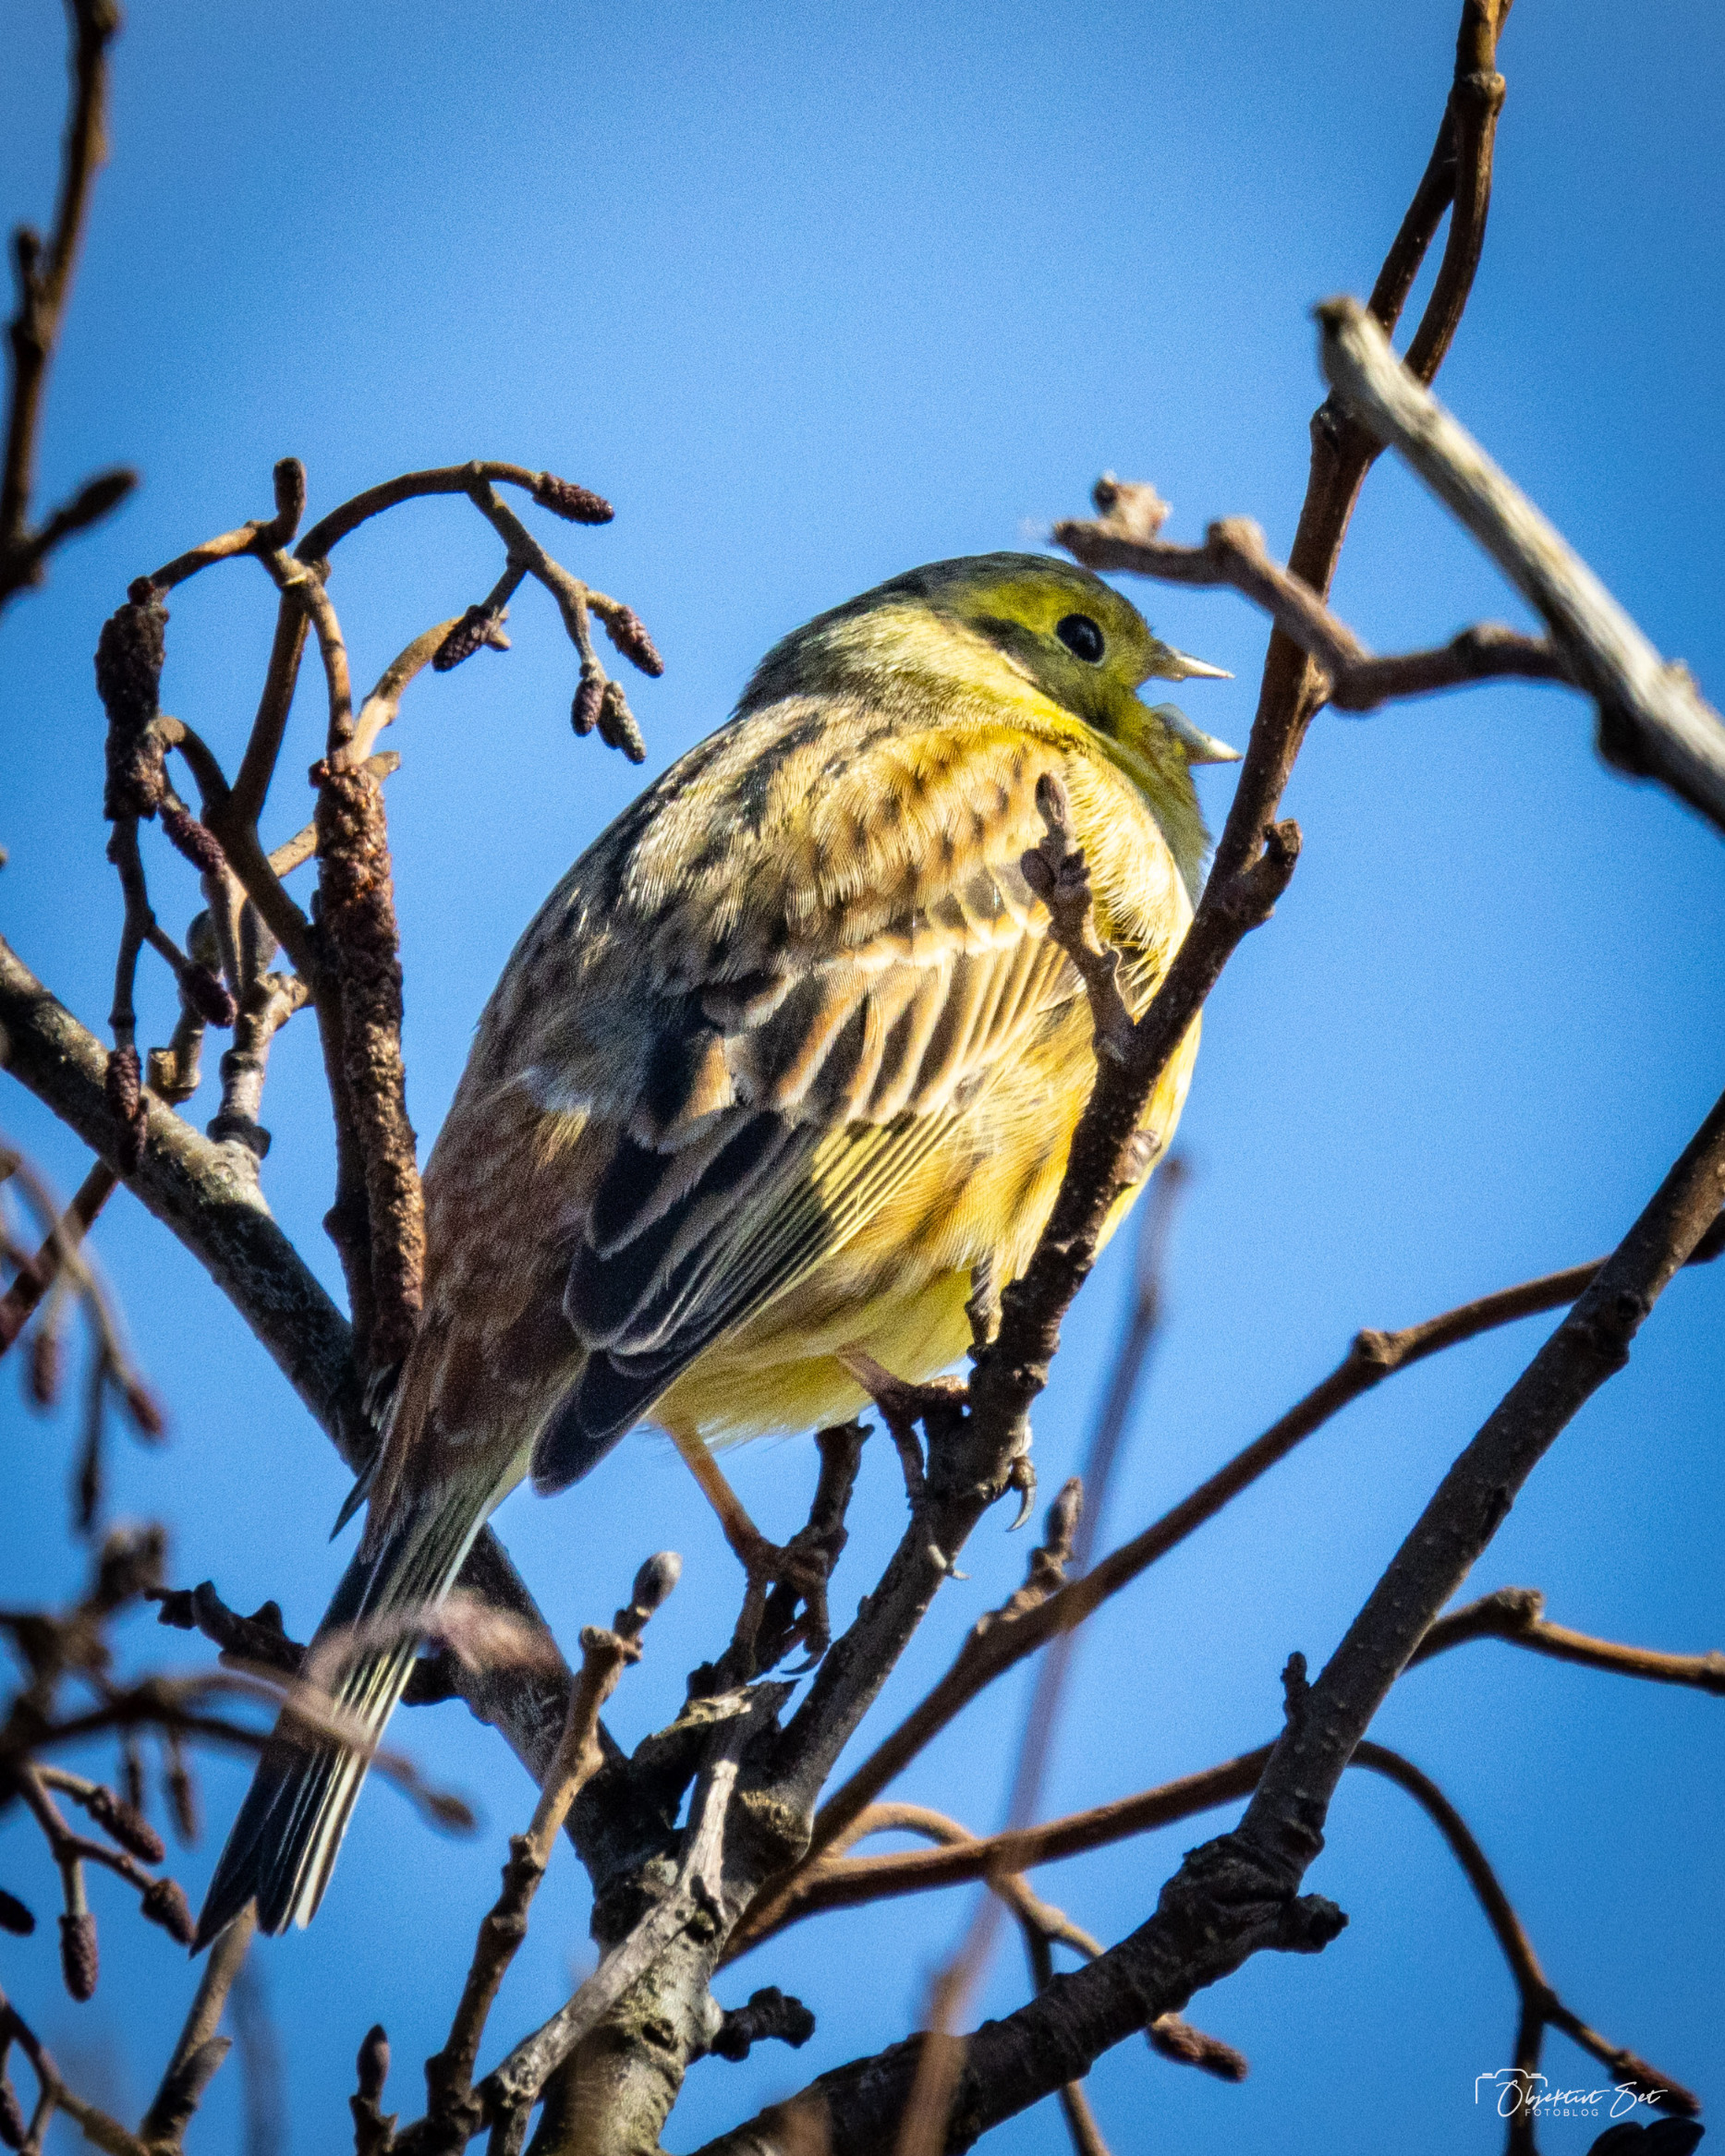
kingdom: Animalia
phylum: Chordata
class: Aves
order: Passeriformes
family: Emberizidae
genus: Emberiza
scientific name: Emberiza citrinella
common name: Gulspurv
